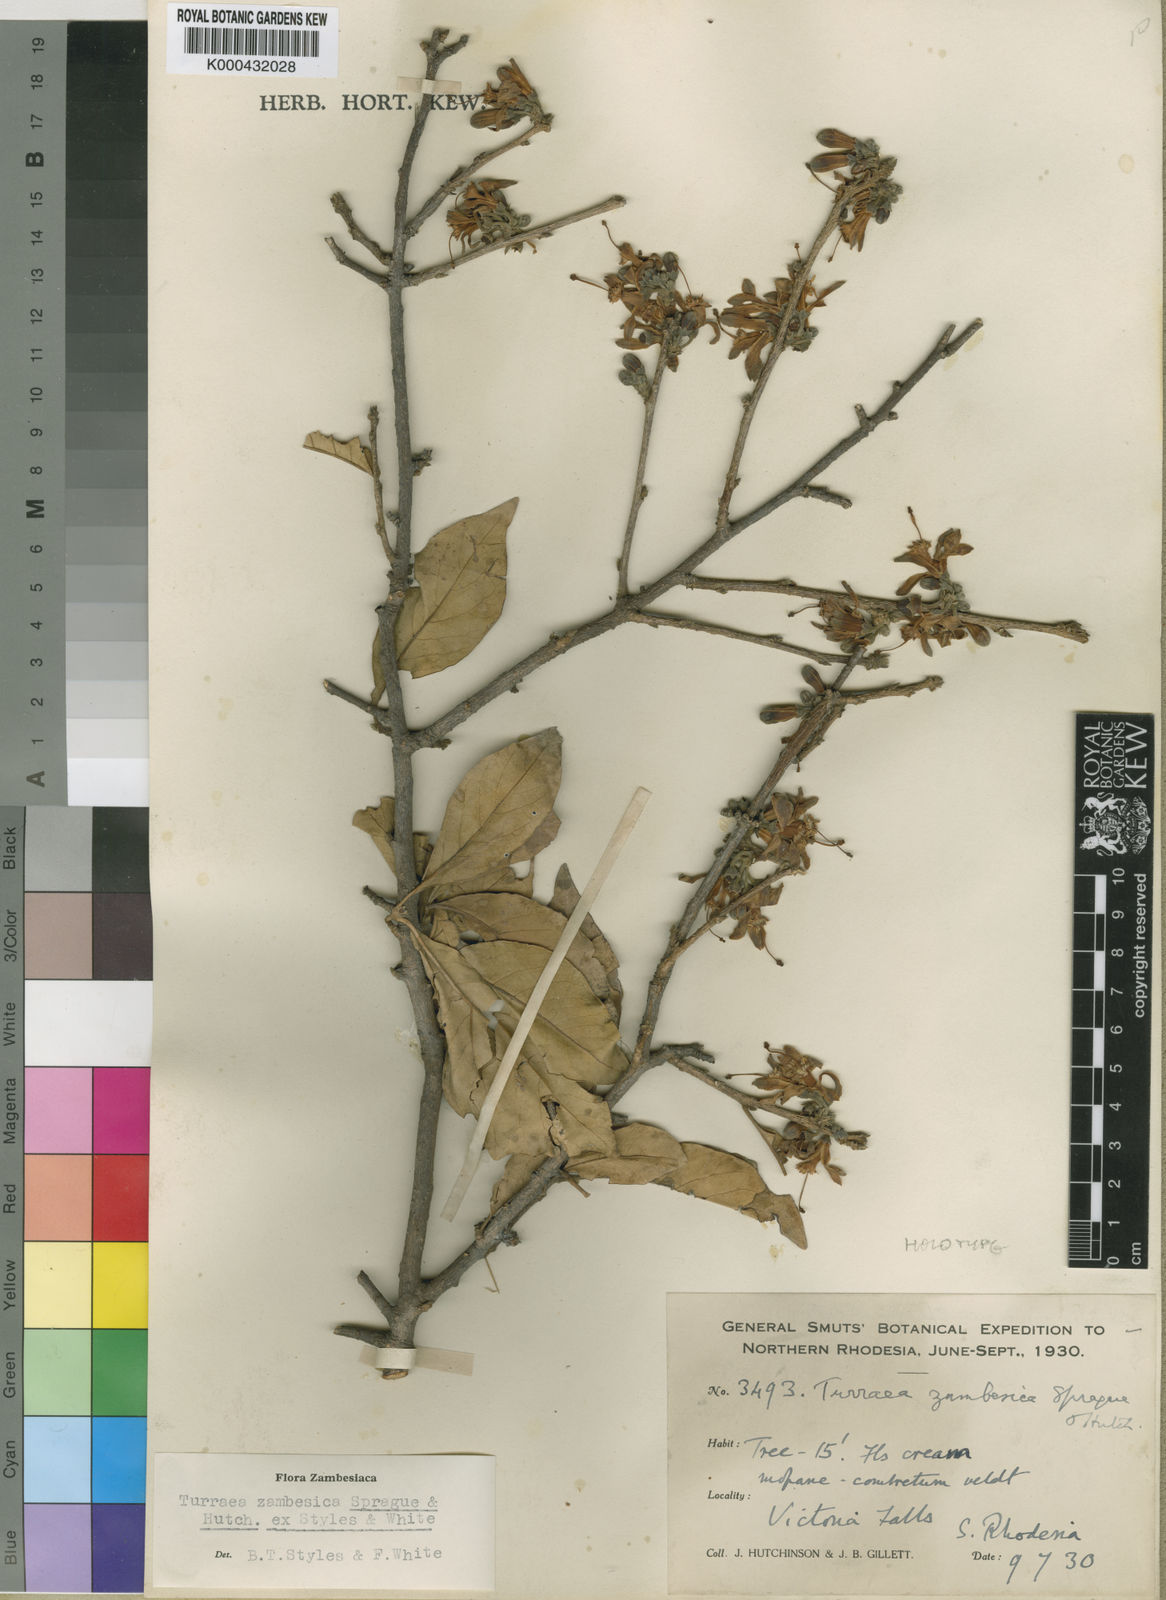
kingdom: Plantae
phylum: Tracheophyta
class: Magnoliopsida
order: Sapindales
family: Meliaceae
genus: Turraea
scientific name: Turraea
